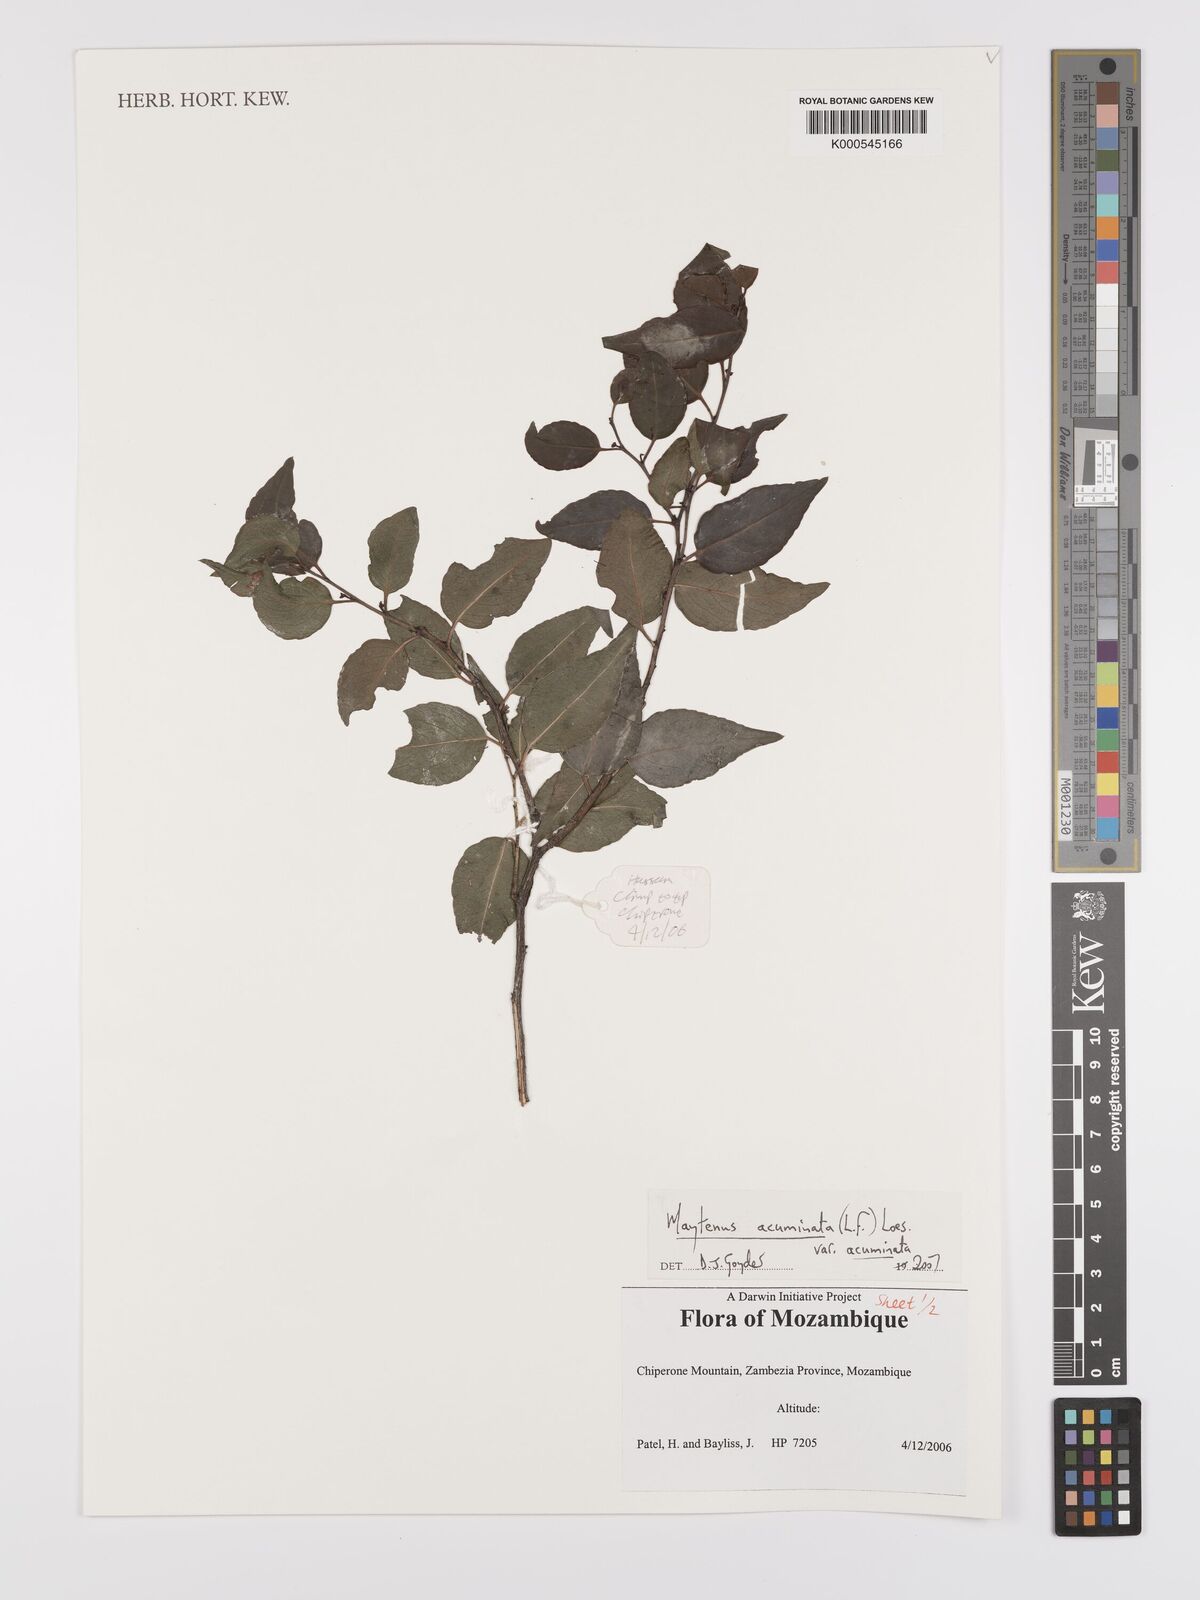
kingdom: Plantae
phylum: Tracheophyta
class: Magnoliopsida
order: Celastrales
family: Celastraceae
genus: Gymnosporia
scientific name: Gymnosporia acuminata
